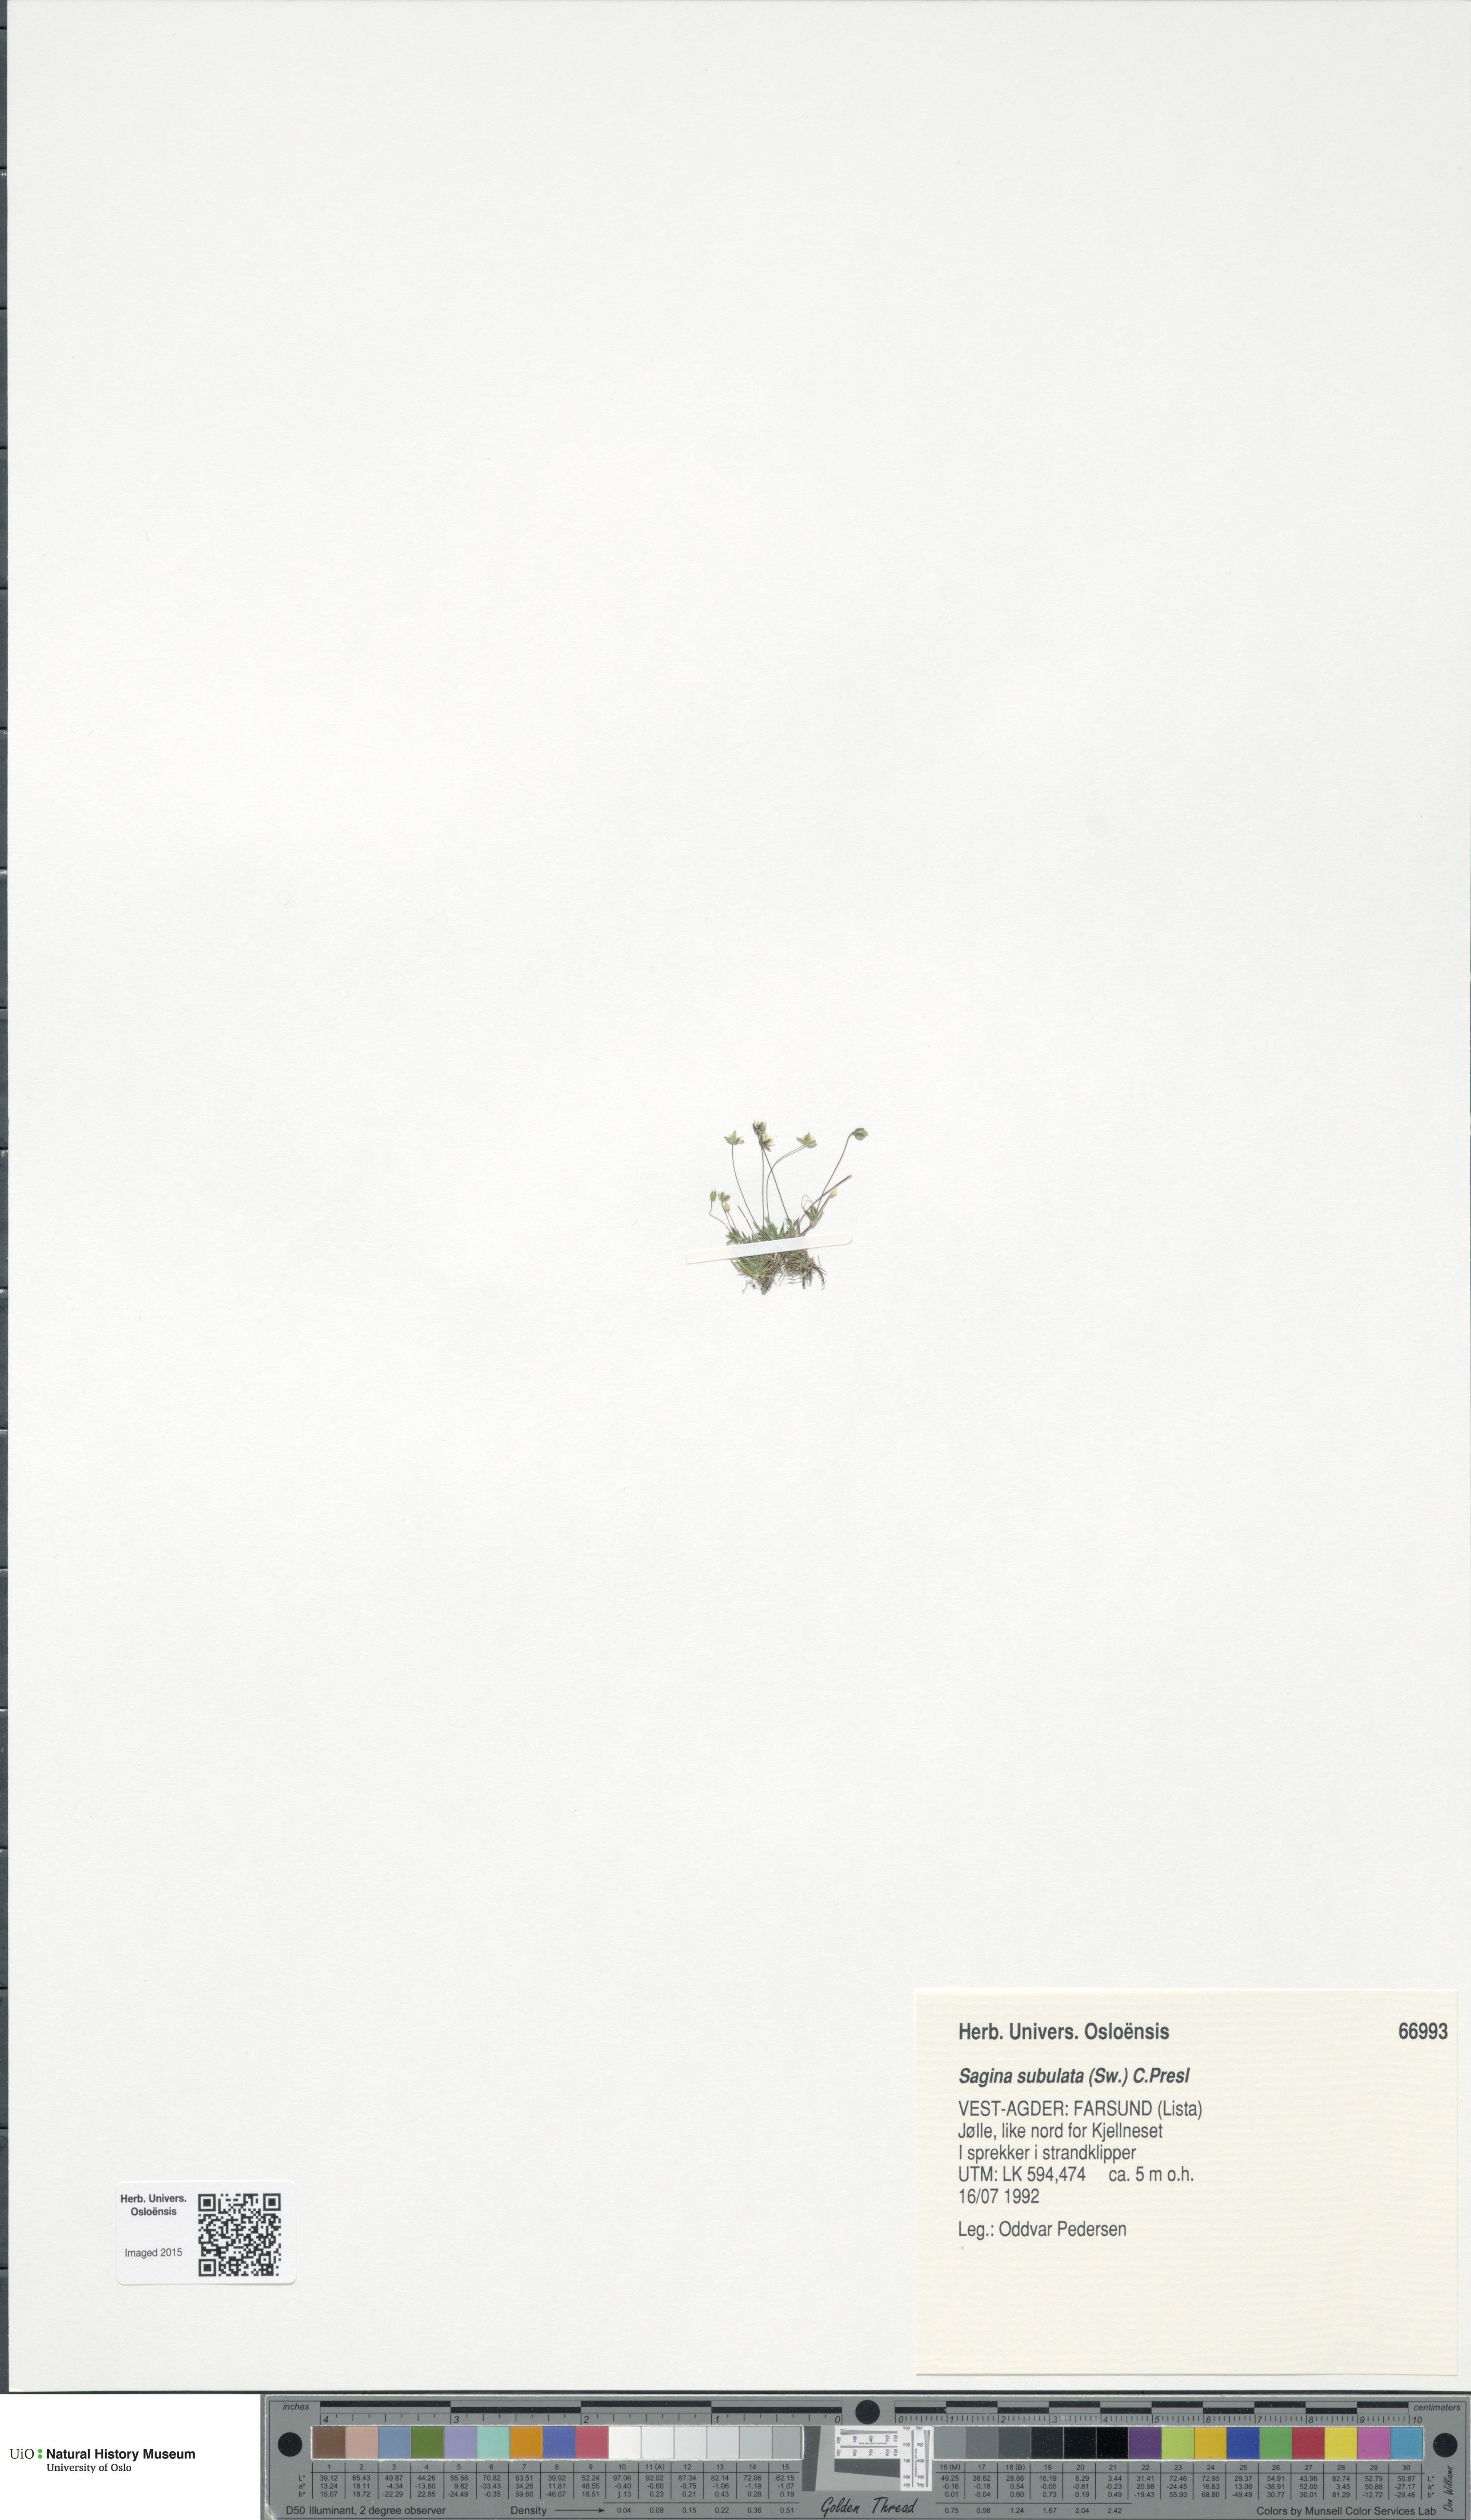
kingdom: Plantae
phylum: Tracheophyta
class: Magnoliopsida
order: Caryophyllales
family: Caryophyllaceae
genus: Sagina
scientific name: Sagina alexandrae
